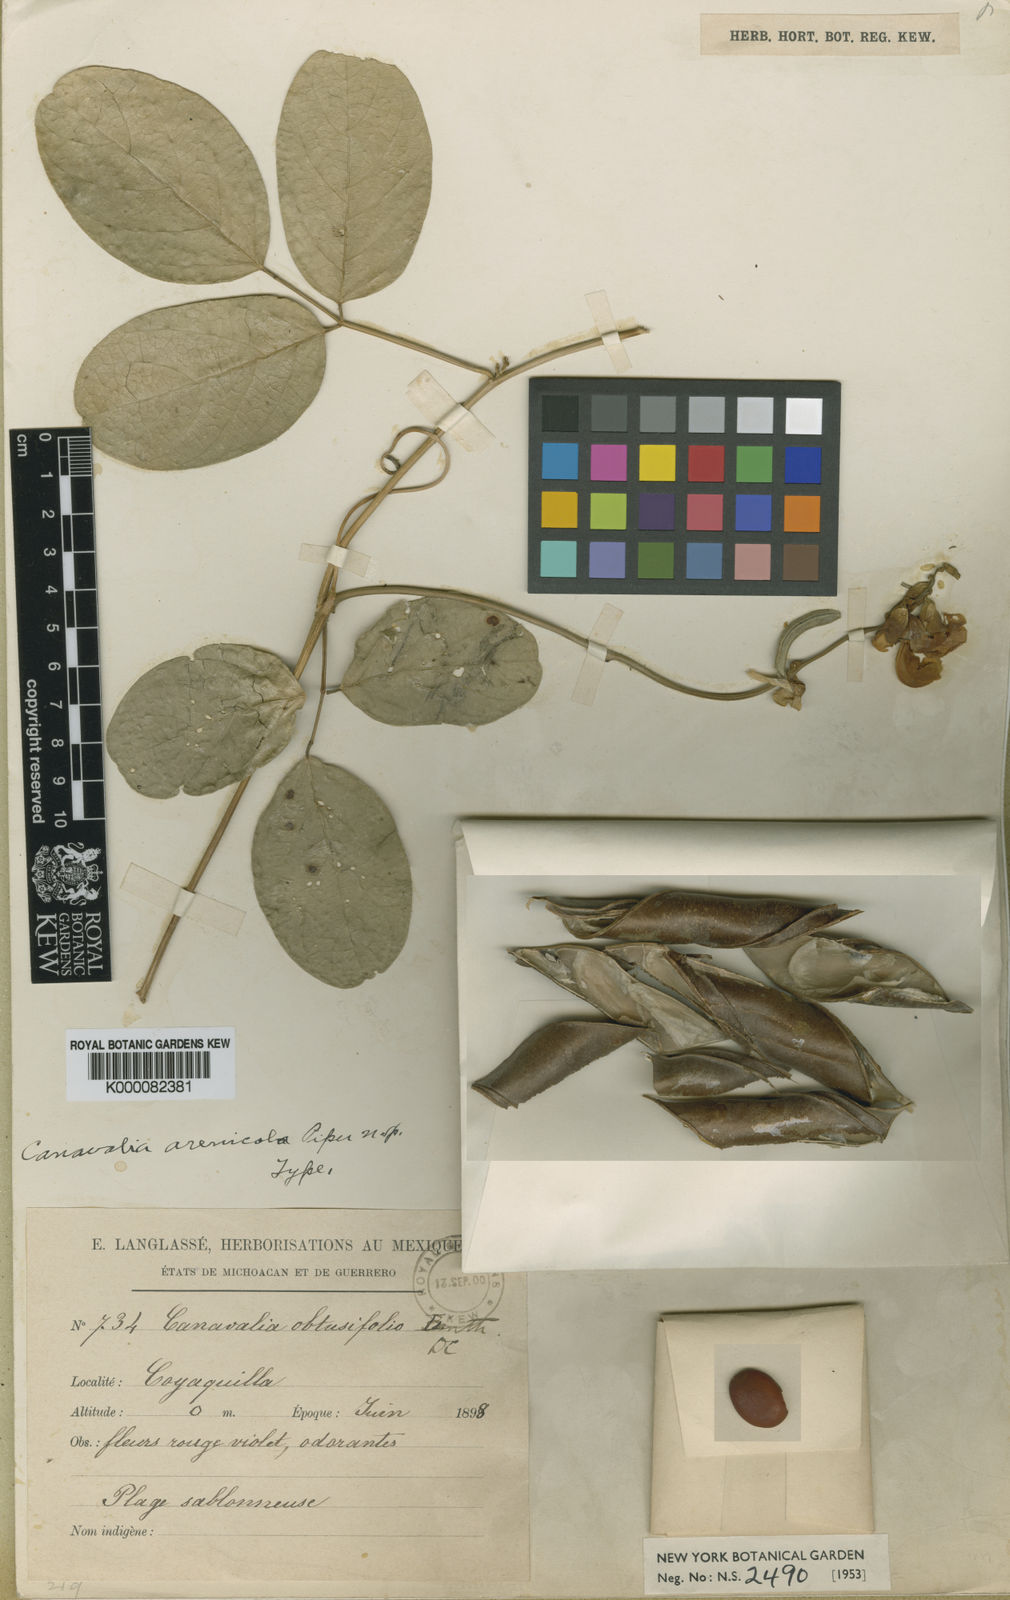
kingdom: Plantae
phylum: Tracheophyta
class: Magnoliopsida
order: Fabales
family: Fabaceae
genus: Canavalia
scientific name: Canavalia rosea
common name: Beach-bean
